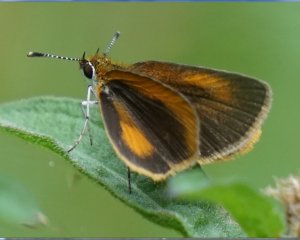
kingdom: Animalia
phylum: Arthropoda
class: Insecta
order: Lepidoptera
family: Hesperiidae
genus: Ancyloxypha
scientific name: Ancyloxypha numitor
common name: Least Skipper
